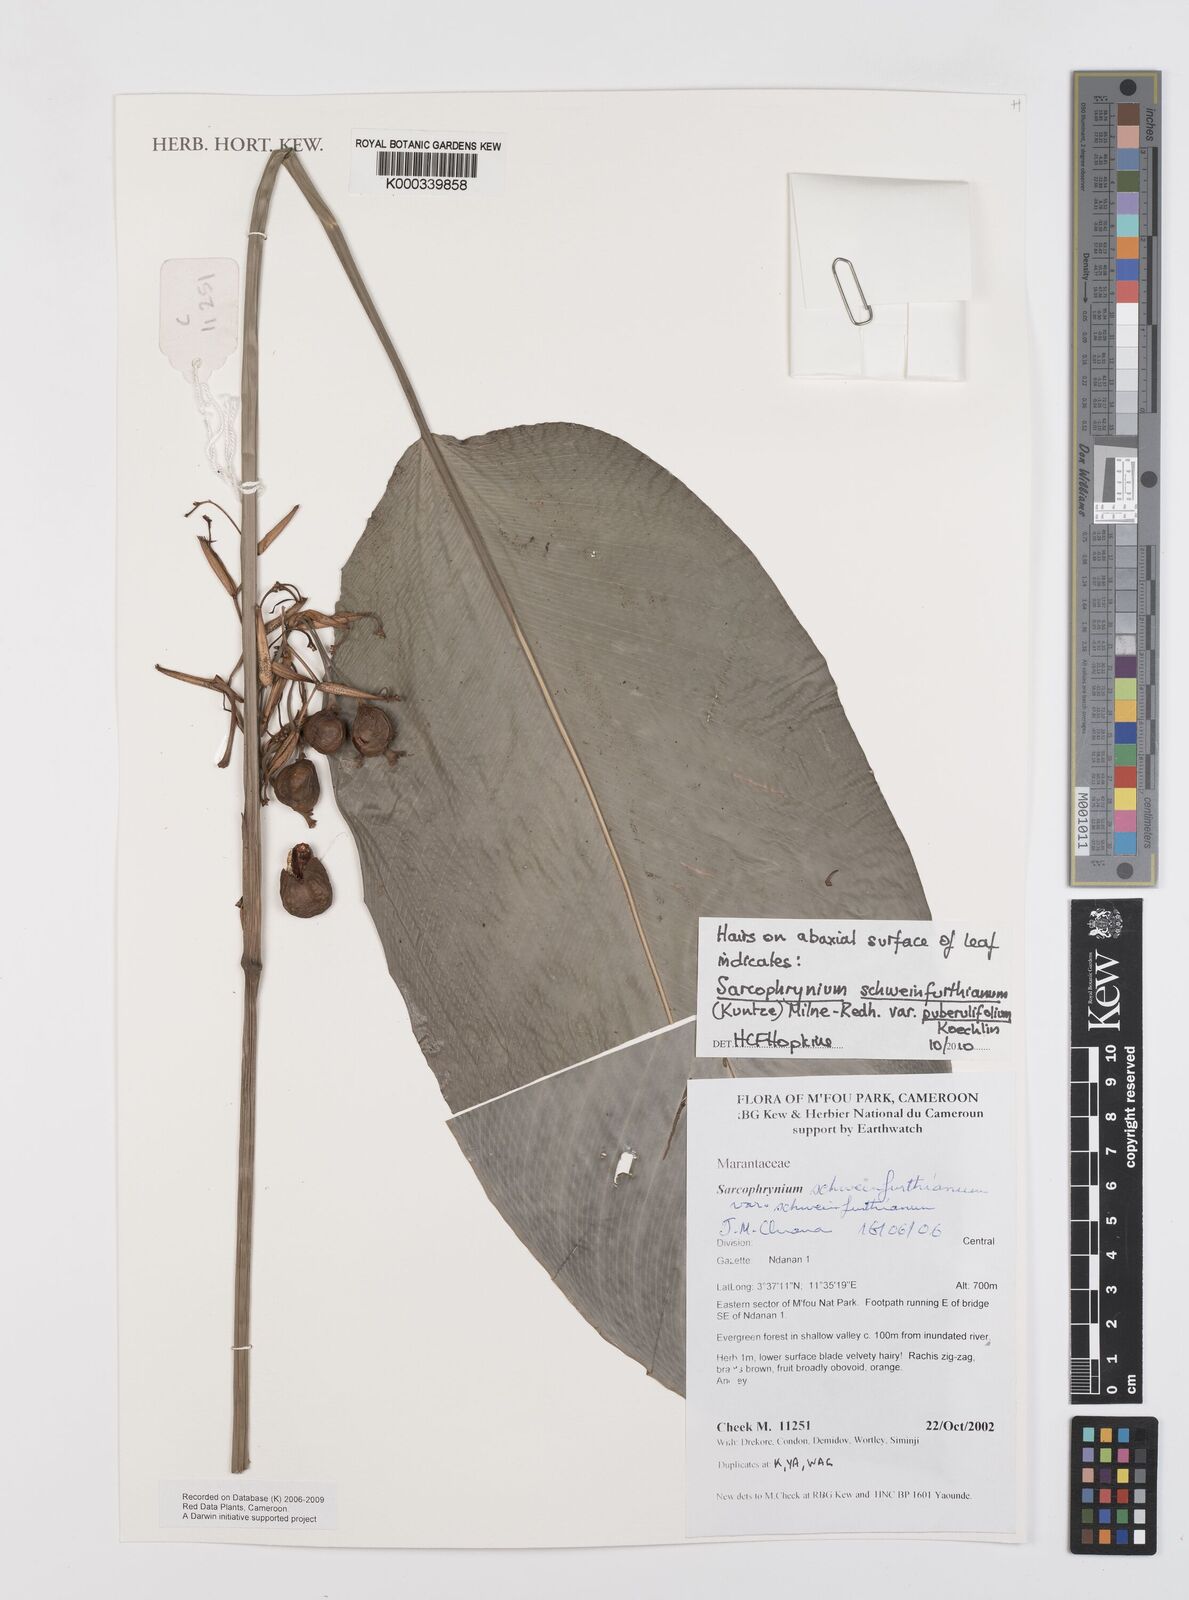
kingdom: Plantae
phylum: Tracheophyta
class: Liliopsida
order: Zingiberales
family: Marantaceae
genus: Sarcophrynium
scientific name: Sarcophrynium schweinfurthianum
